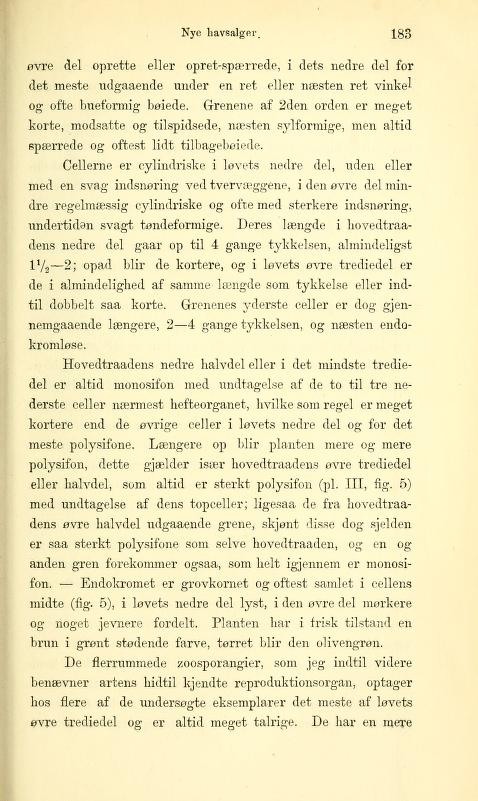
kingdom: Chromista
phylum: Ochrophyta
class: Phaeophyceae
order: Ectocarpales
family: Chordariaceae
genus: Fosliea
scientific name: Fosliea curta
